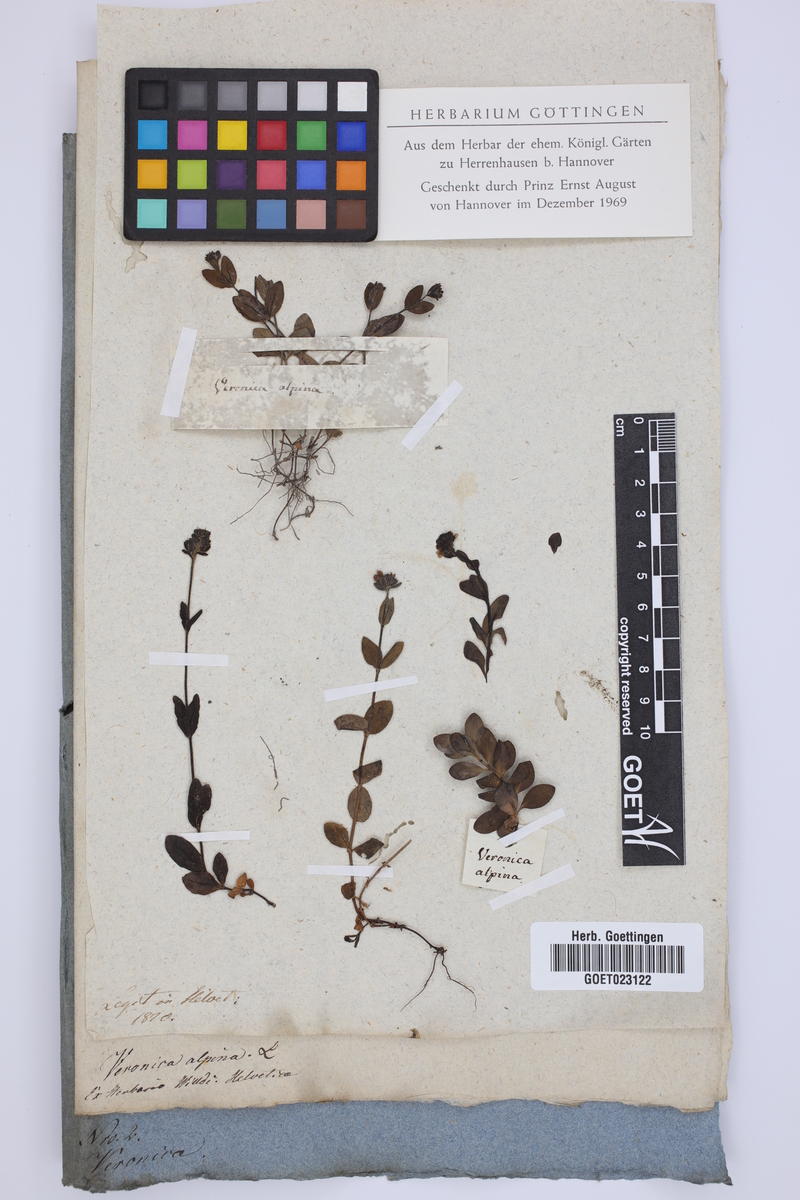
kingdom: Plantae
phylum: Tracheophyta
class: Magnoliopsida
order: Lamiales
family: Plantaginaceae
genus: Veronica
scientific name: Veronica alpina
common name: Alpine speedwell
